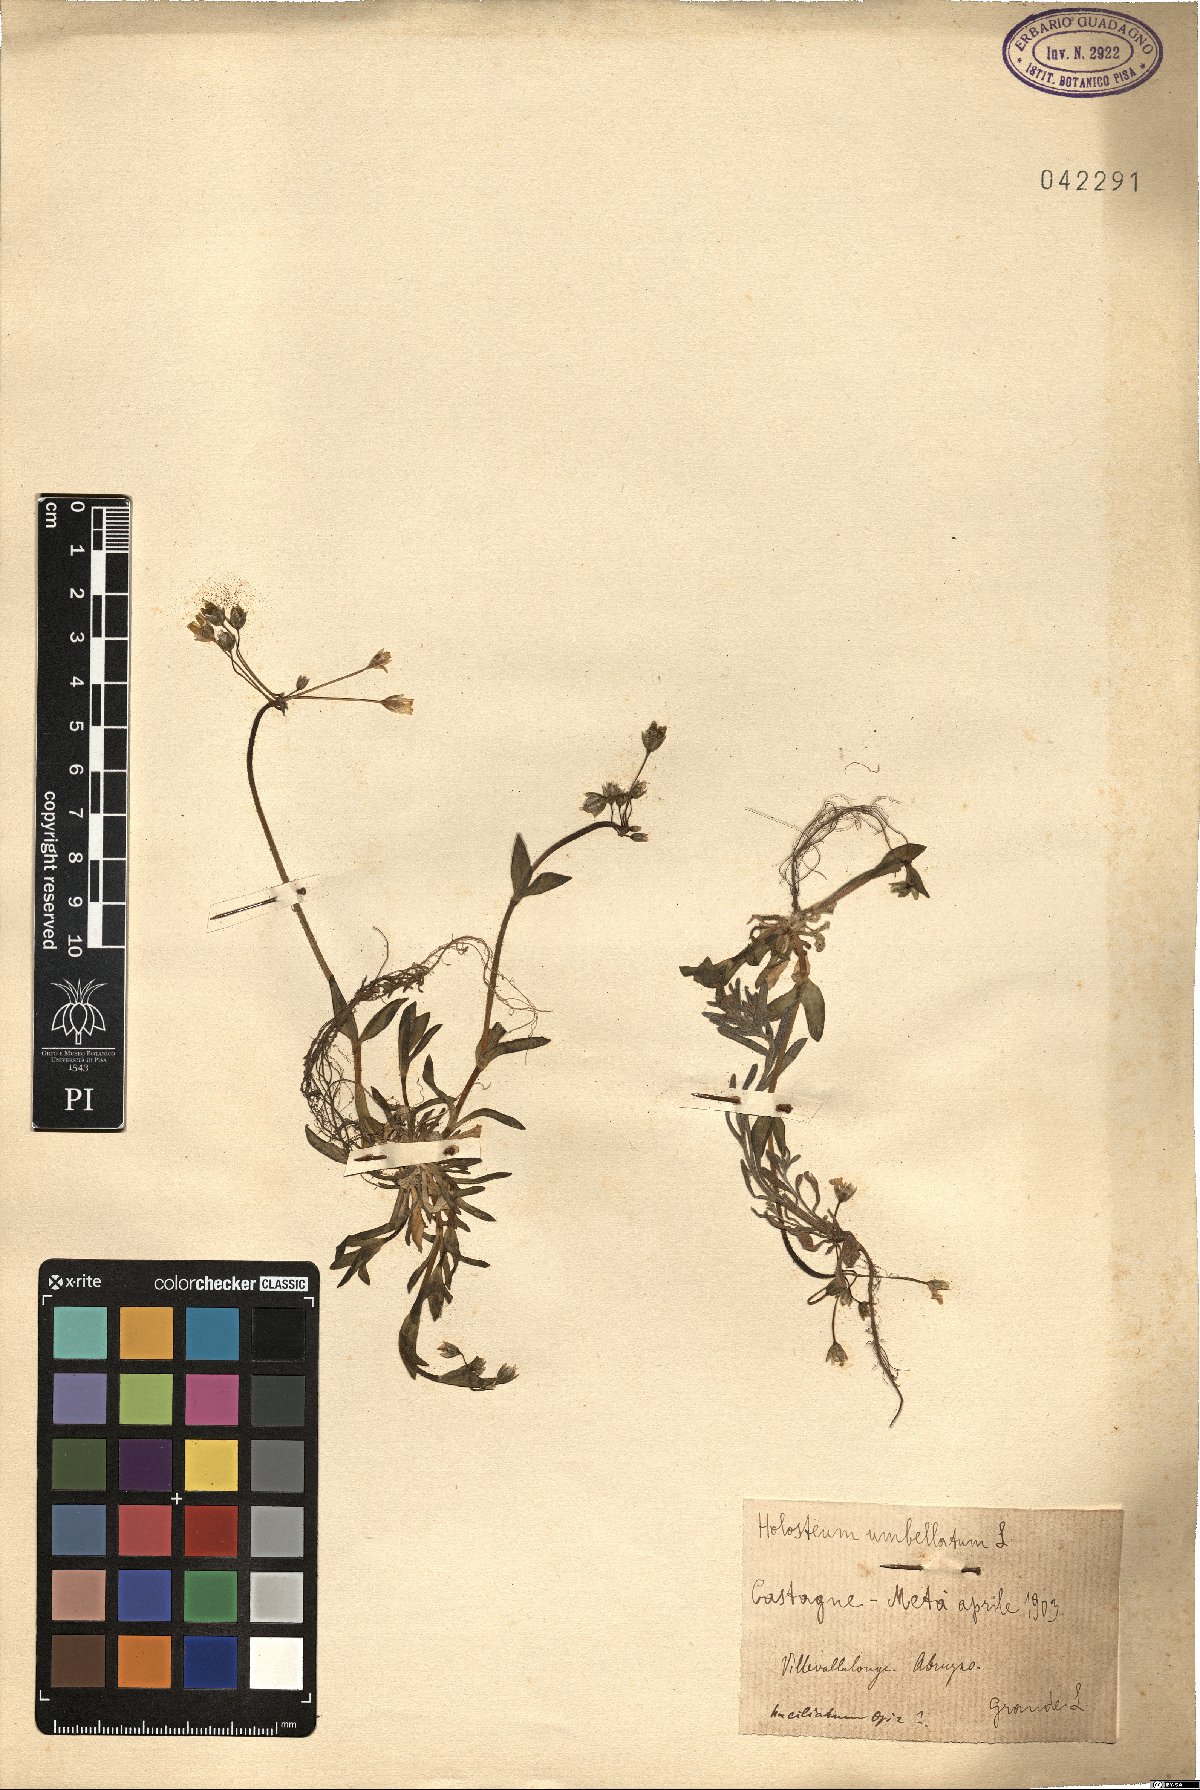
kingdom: Plantae
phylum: Tracheophyta
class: Magnoliopsida
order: Caryophyllales
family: Caryophyllaceae
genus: Holosteum
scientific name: Holosteum umbellatum
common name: Jagged chickweed
